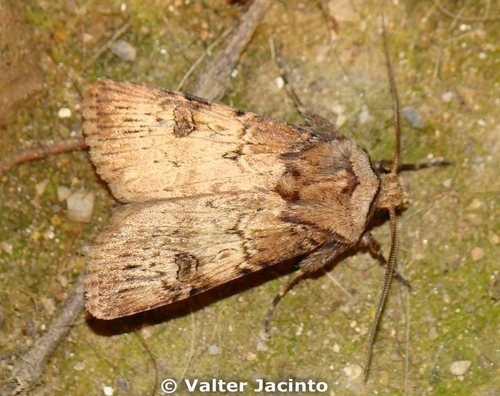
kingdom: Animalia
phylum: Arthropoda
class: Insecta
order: Lepidoptera
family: Noctuidae
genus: Agrotis
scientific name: Agrotis puta
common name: Shuttle-shaped dart
